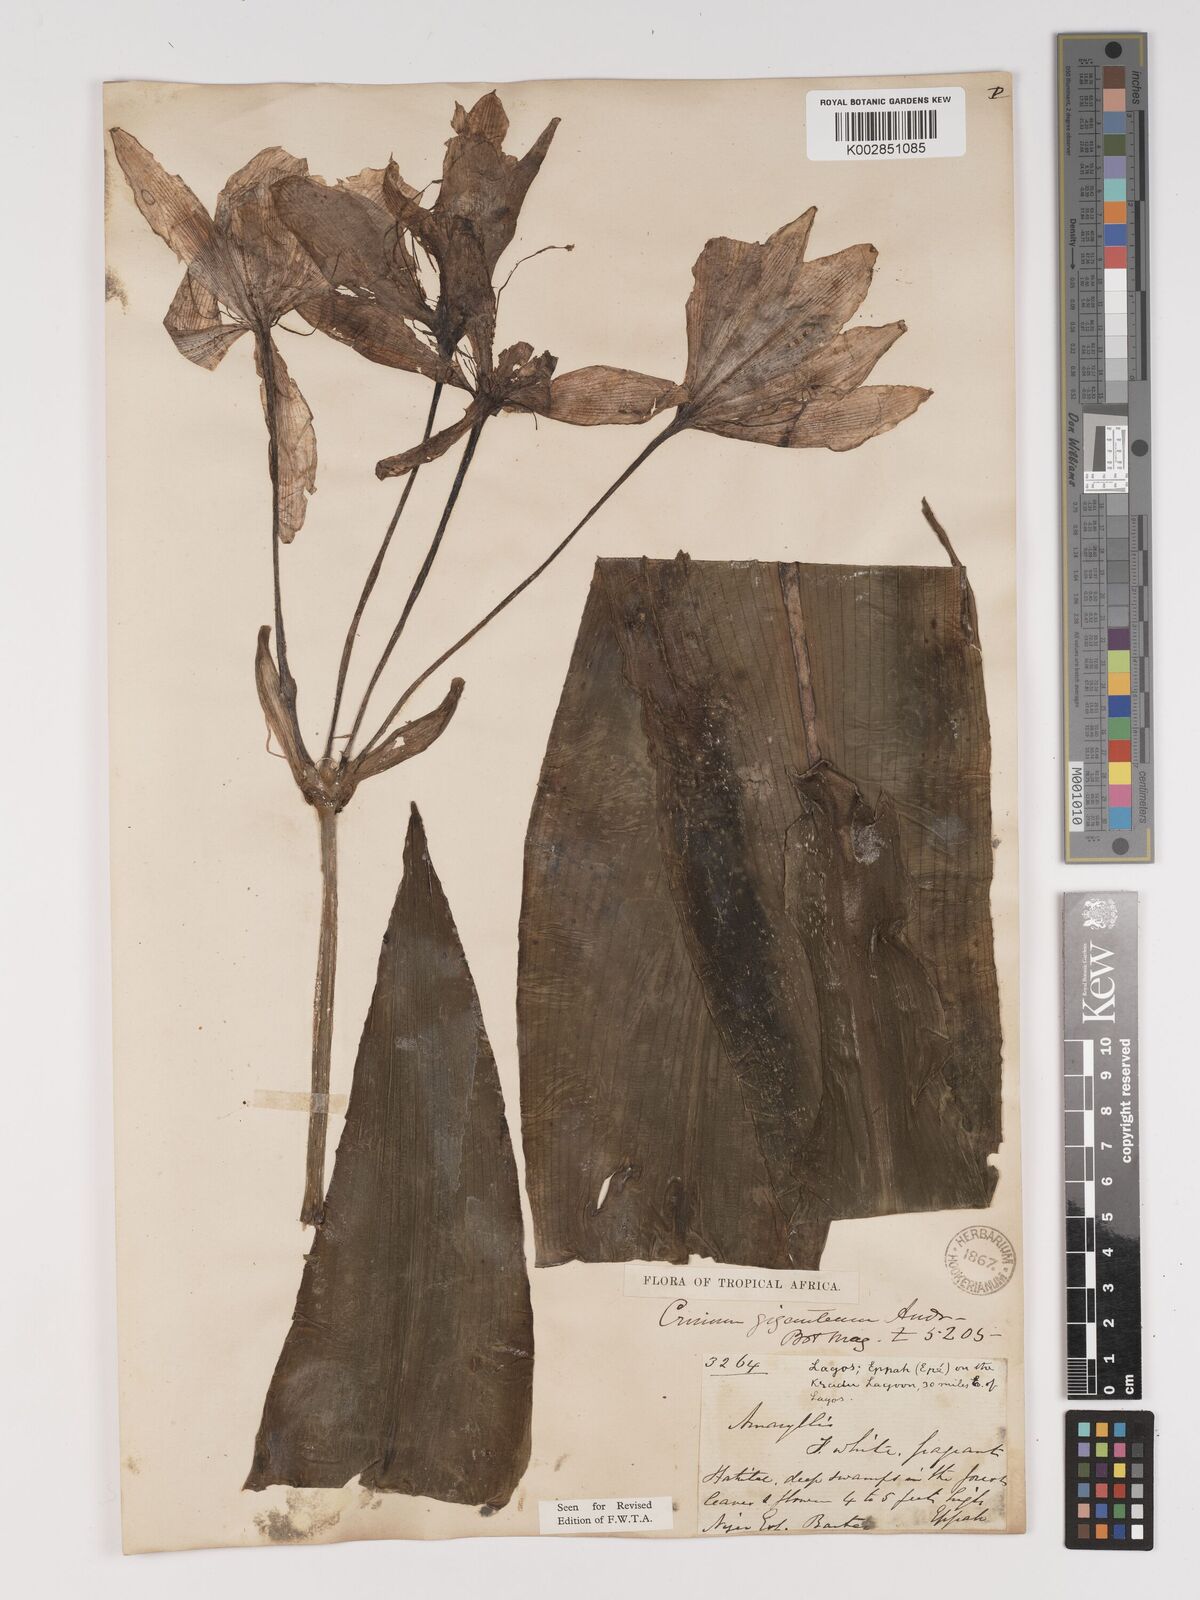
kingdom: Plantae
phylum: Tracheophyta
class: Liliopsida
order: Asparagales
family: Amaryllidaceae
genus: Crinum
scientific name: Crinum jagus
